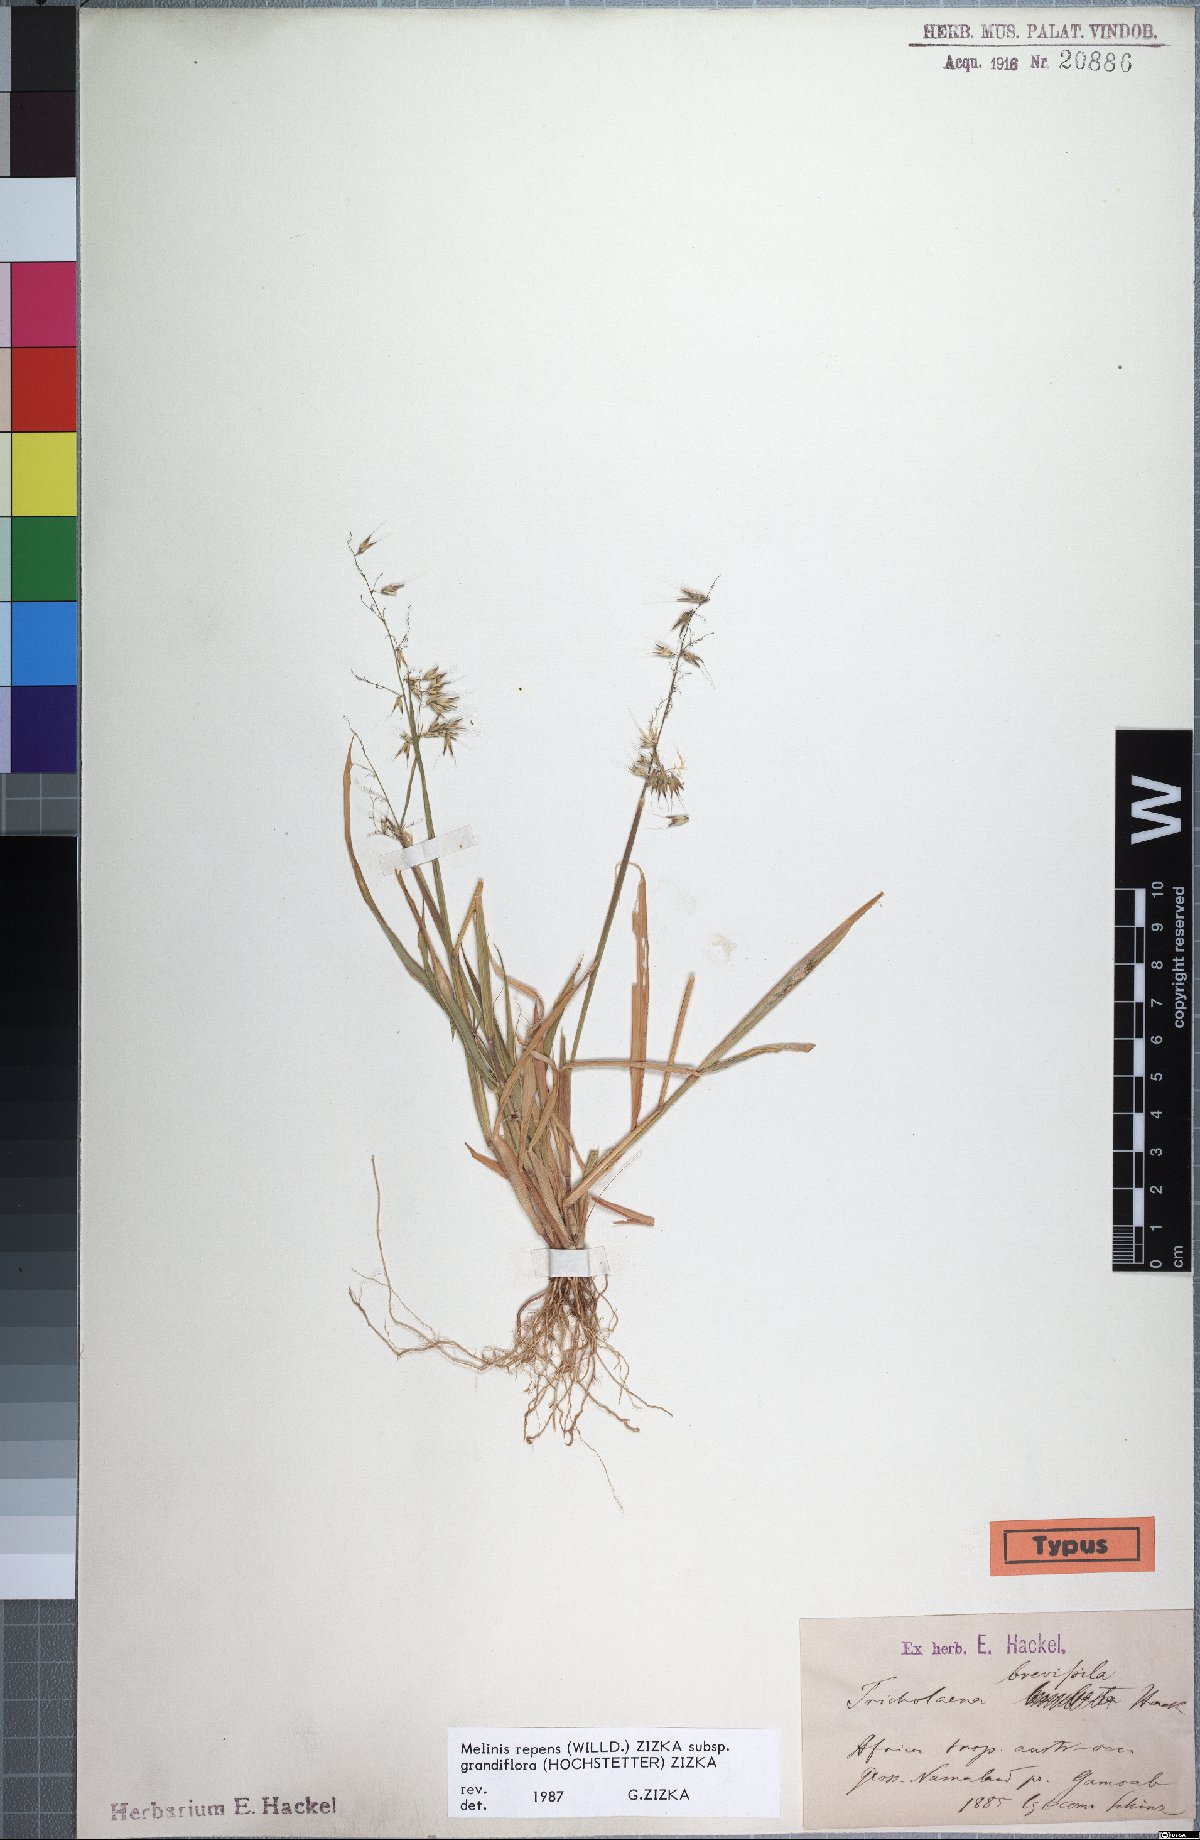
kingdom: Plantae
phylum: Tracheophyta
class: Liliopsida
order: Poales
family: Poaceae
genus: Melinis
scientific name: Melinis repens
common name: Rose natal grass
